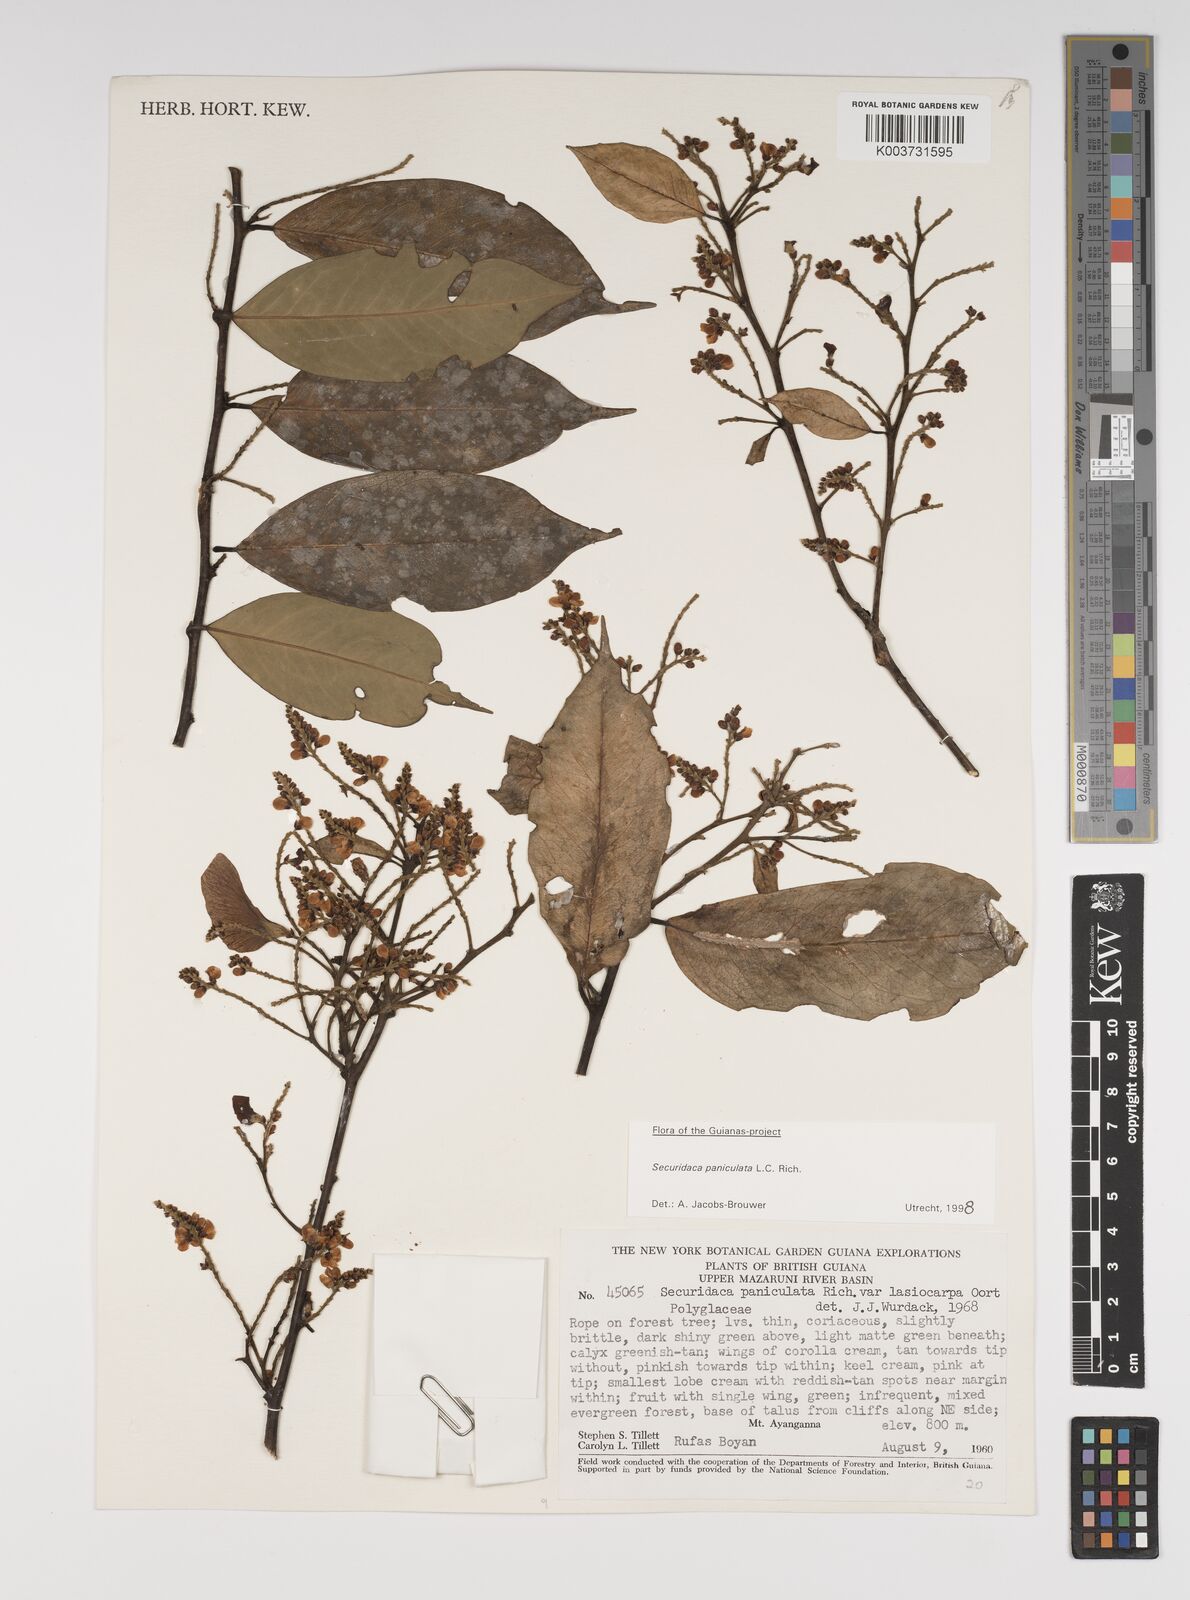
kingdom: Plantae
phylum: Tracheophyta
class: Magnoliopsida
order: Fabales
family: Polygalaceae
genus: Securidaca
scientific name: Securidaca paniculata
